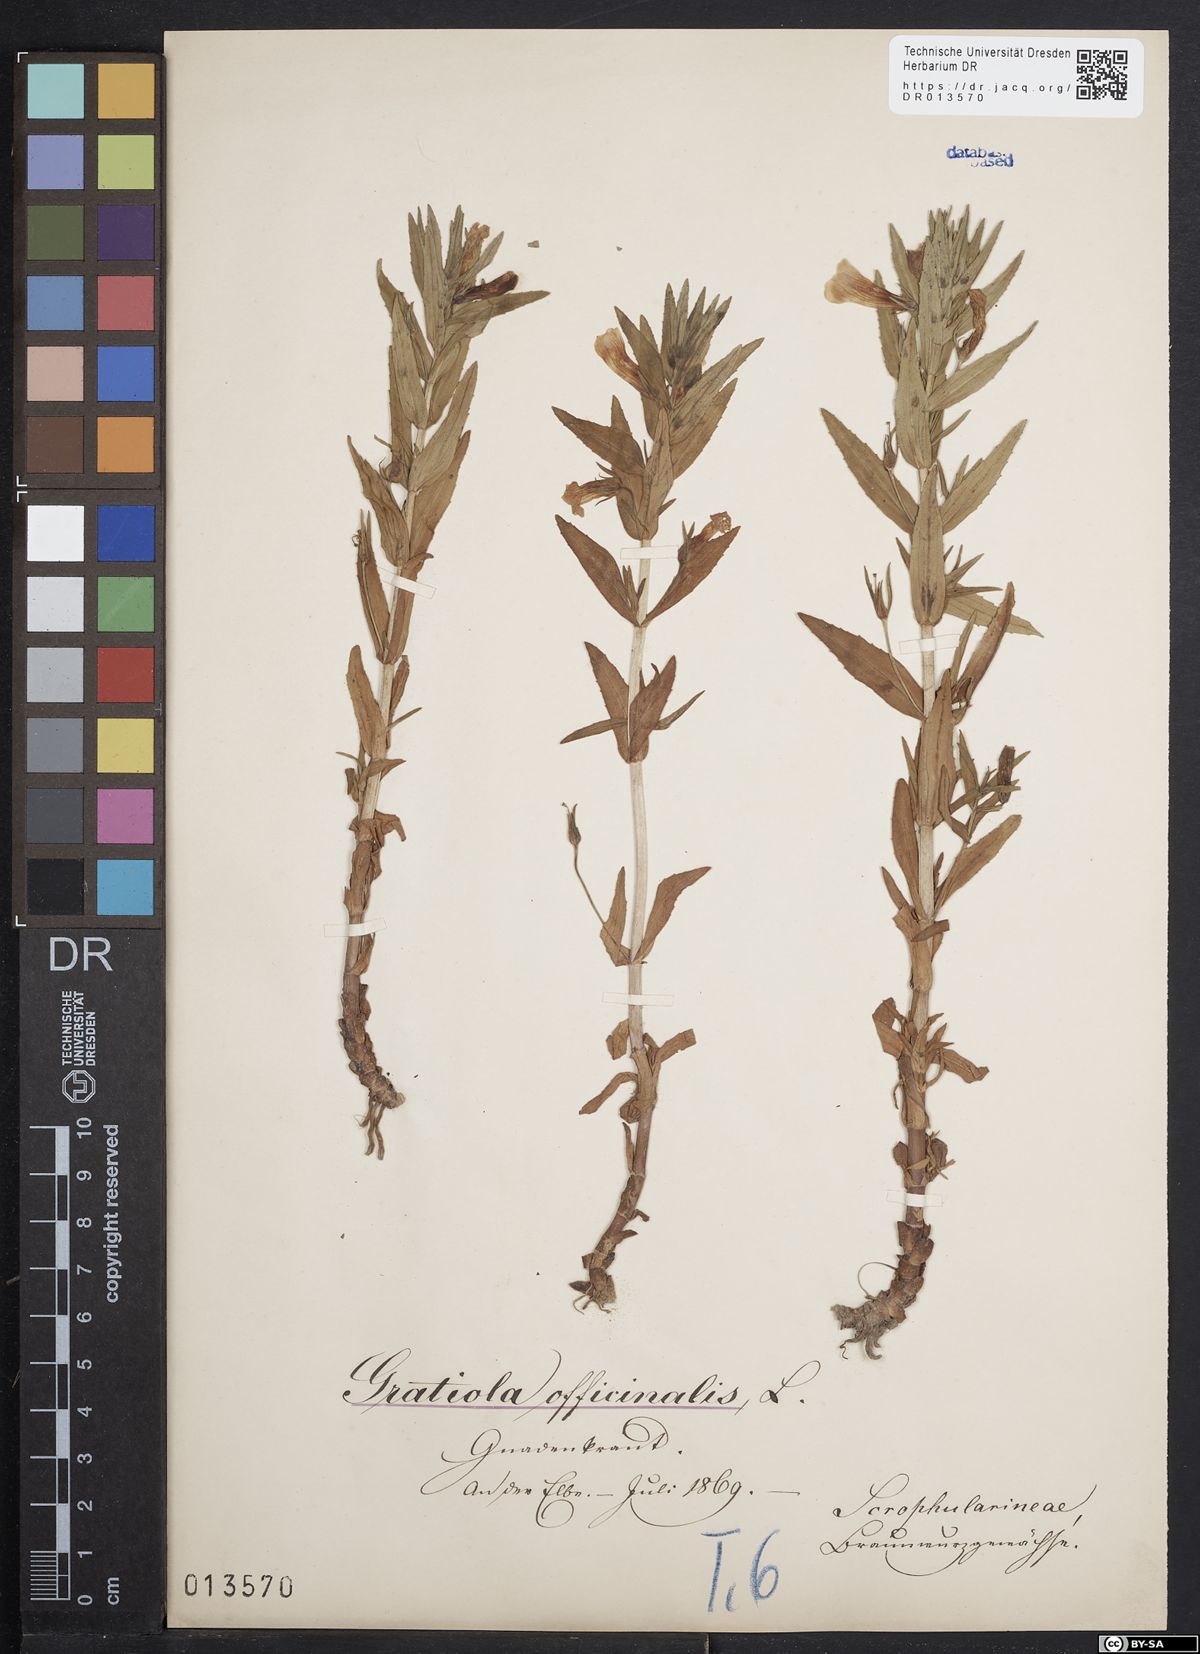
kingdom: Plantae
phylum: Tracheophyta
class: Magnoliopsida
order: Lamiales
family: Plantaginaceae
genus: Gratiola
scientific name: Gratiola officinalis
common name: Gratiola
